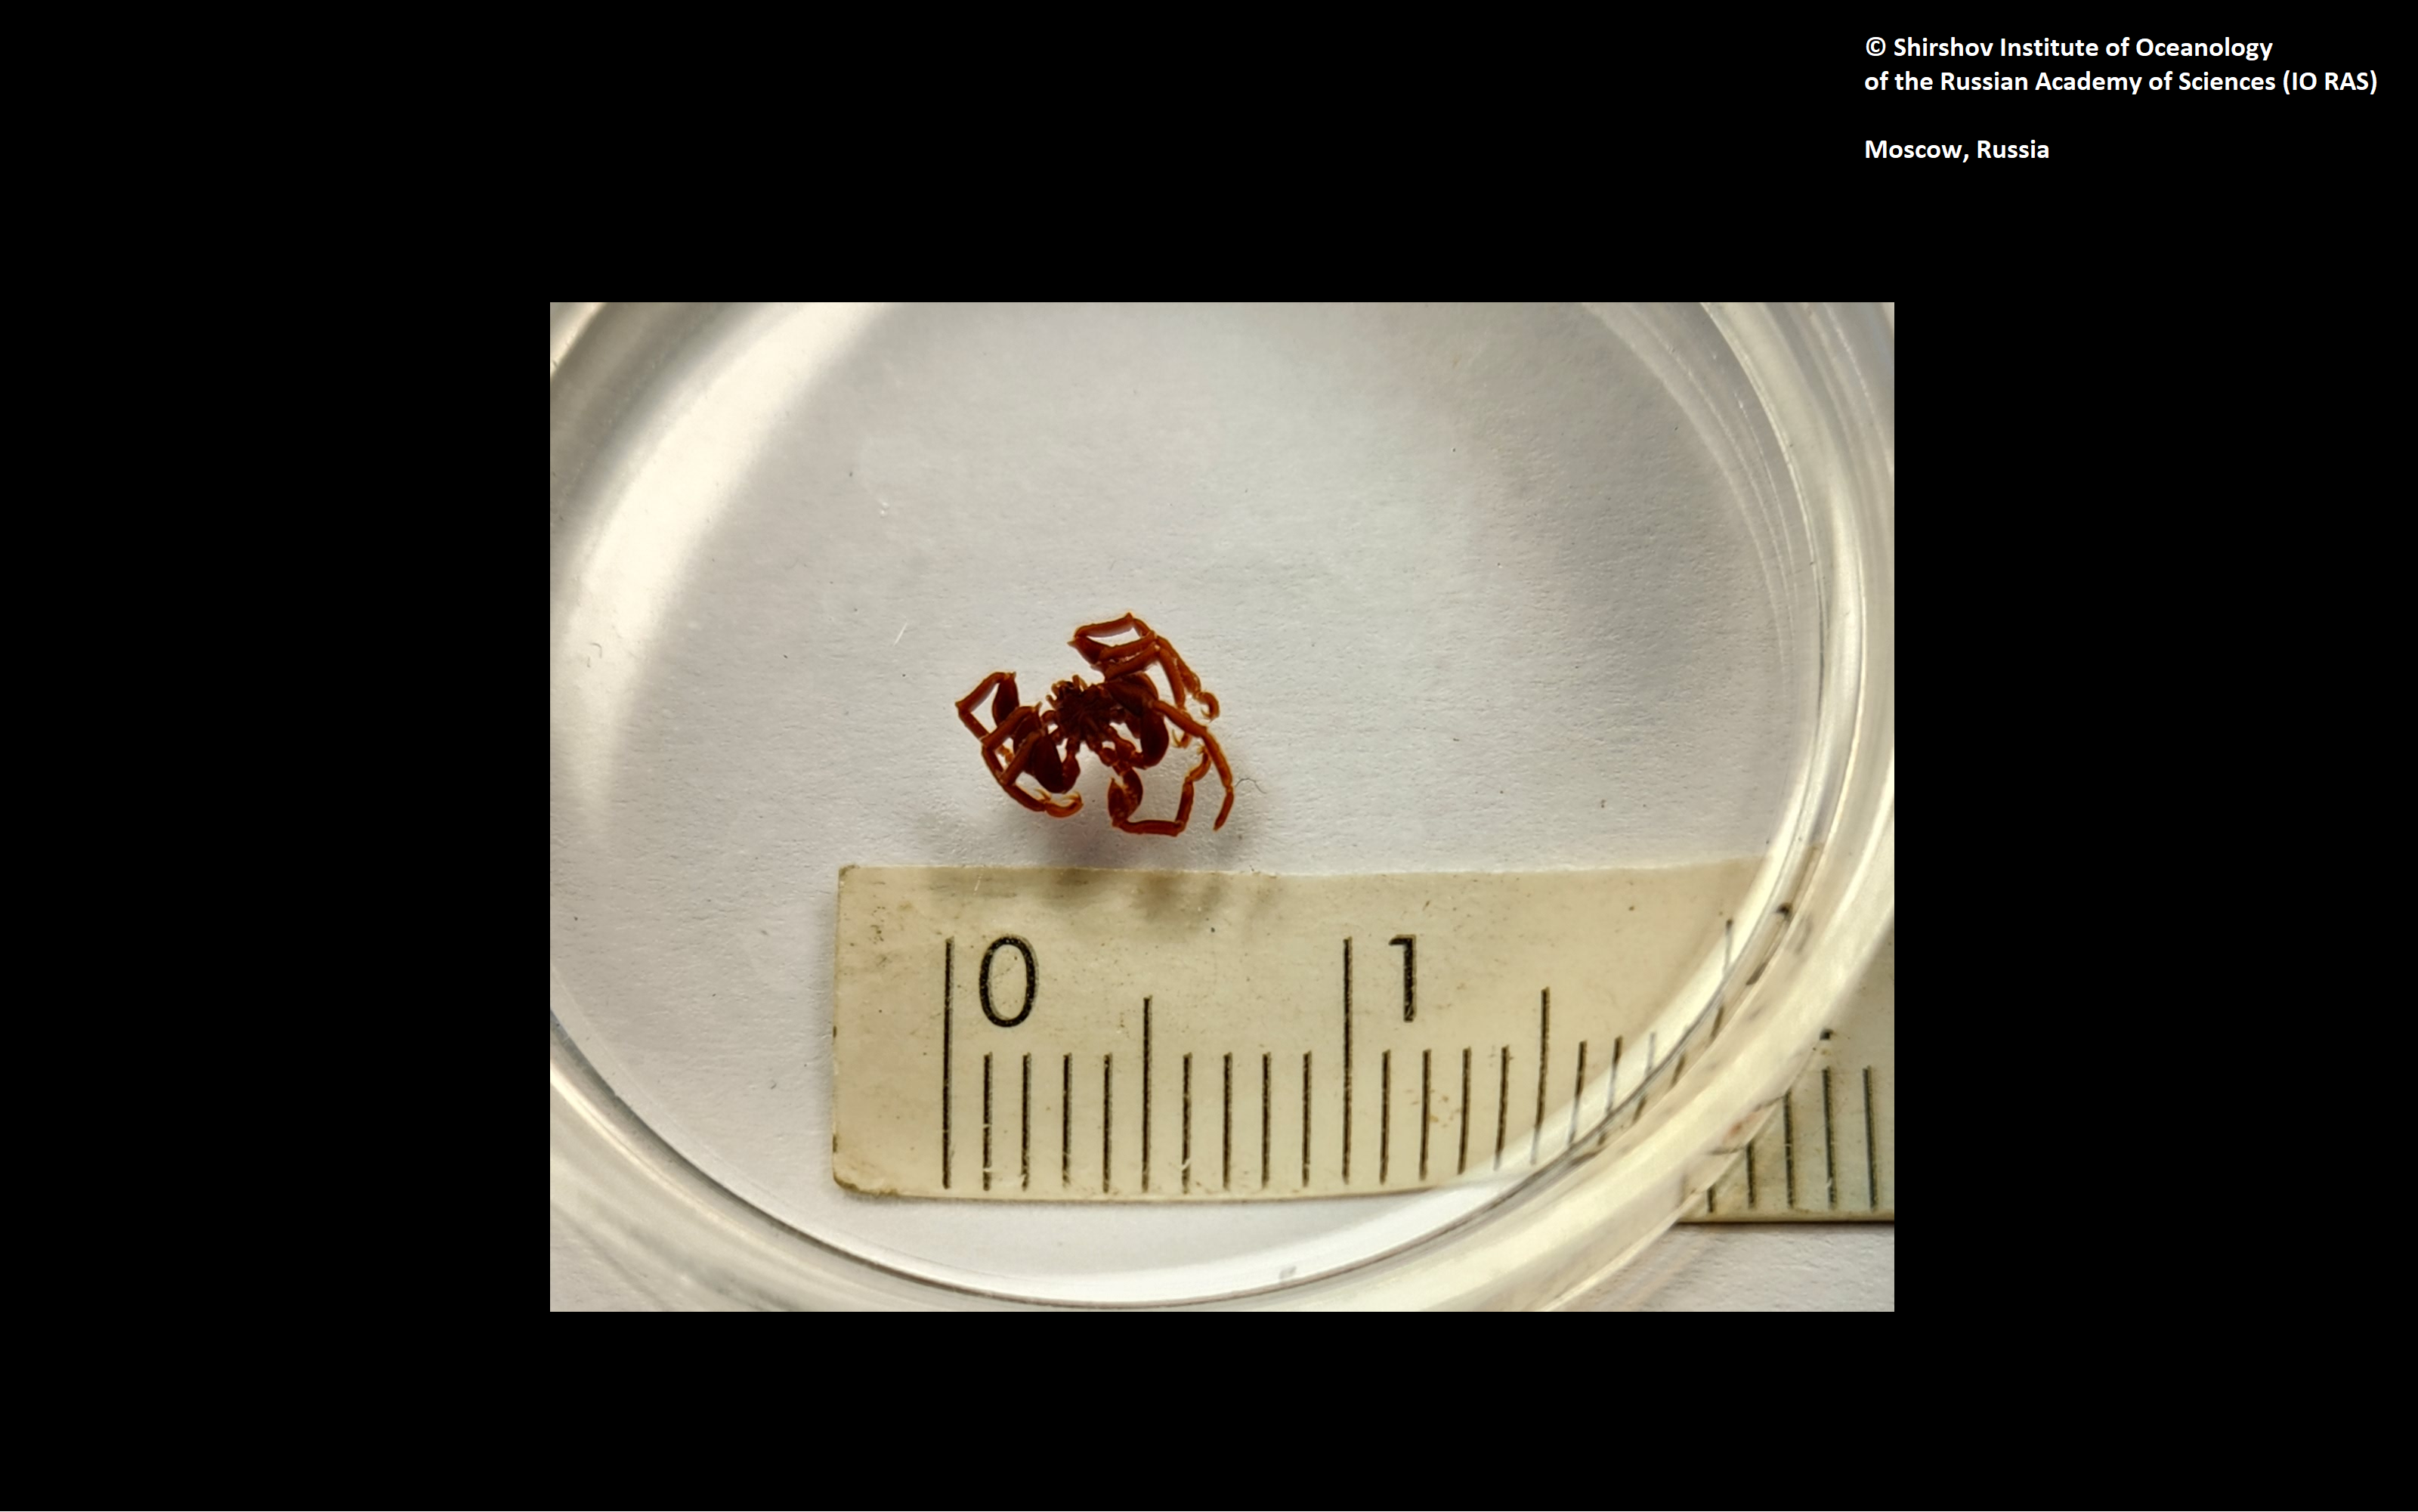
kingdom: Animalia
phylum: Arthropoda
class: Pycnogonida
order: Pantopoda
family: Ammotheidae
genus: Achelia
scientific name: Achelia
